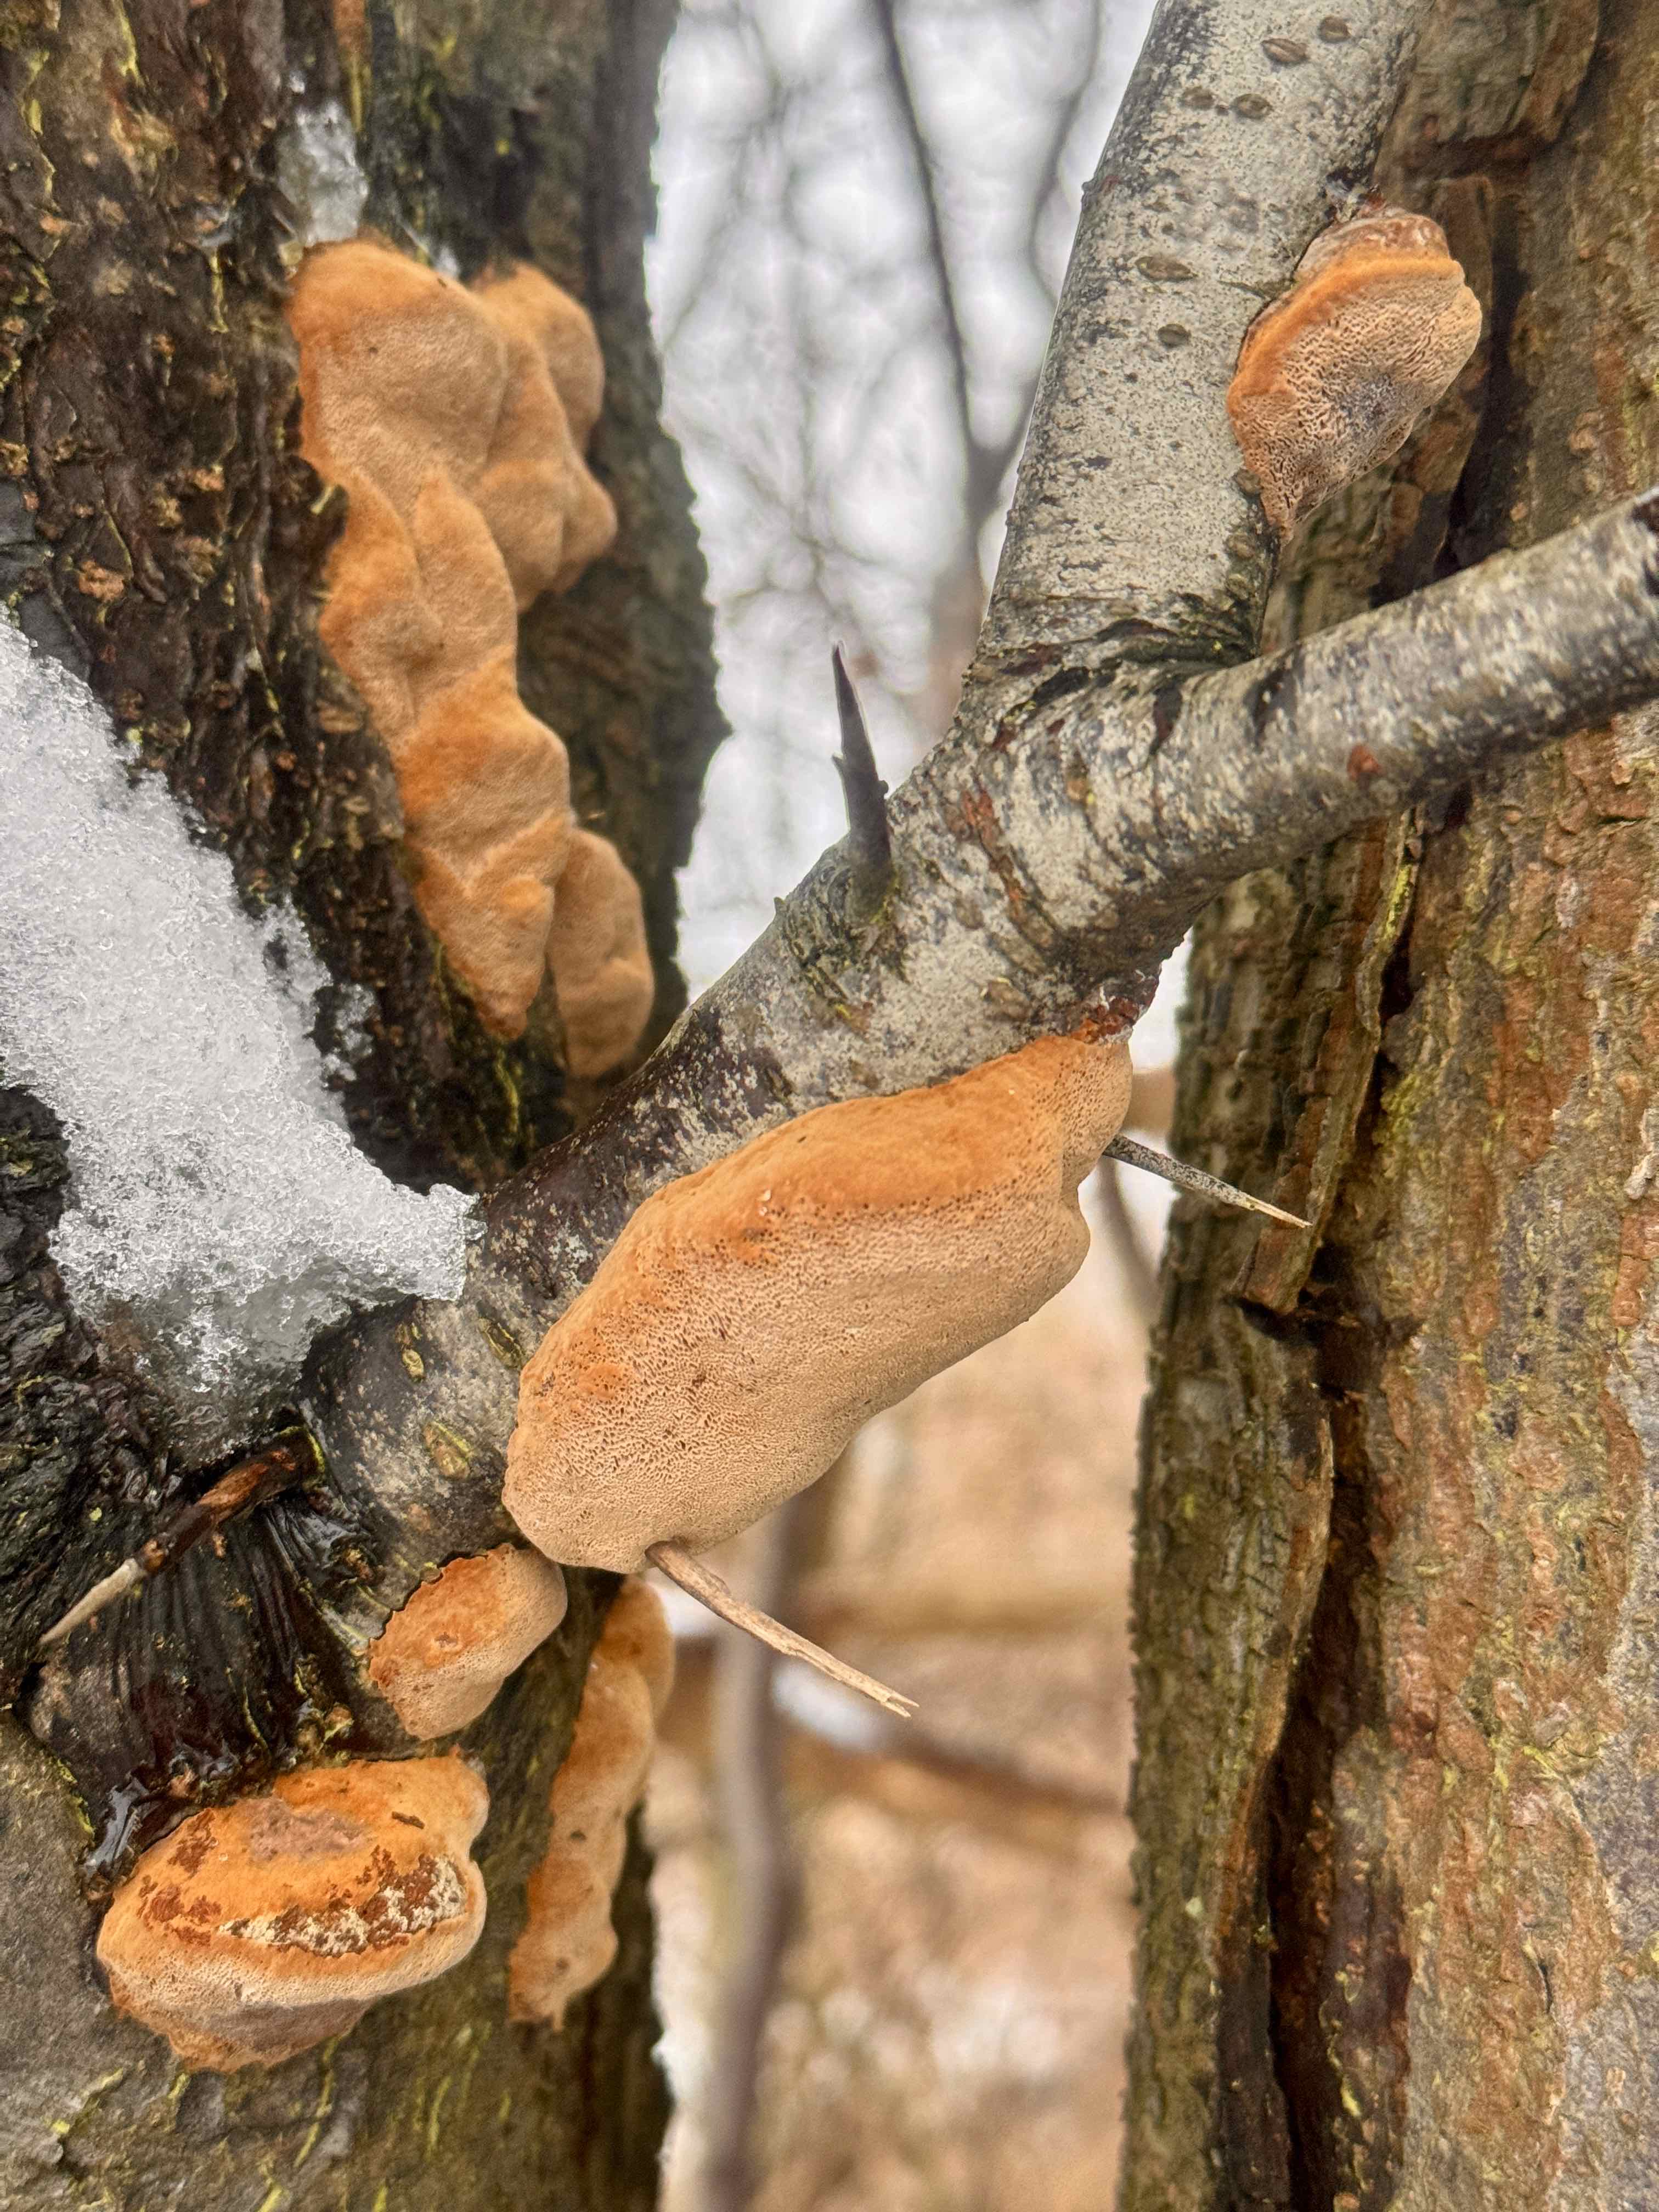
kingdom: Fungi
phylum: Basidiomycota
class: Agaricomycetes
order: Hymenochaetales
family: Hymenochaetaceae
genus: Phellinus
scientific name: Phellinus pomaceus
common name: blomme-ildporesvamp
